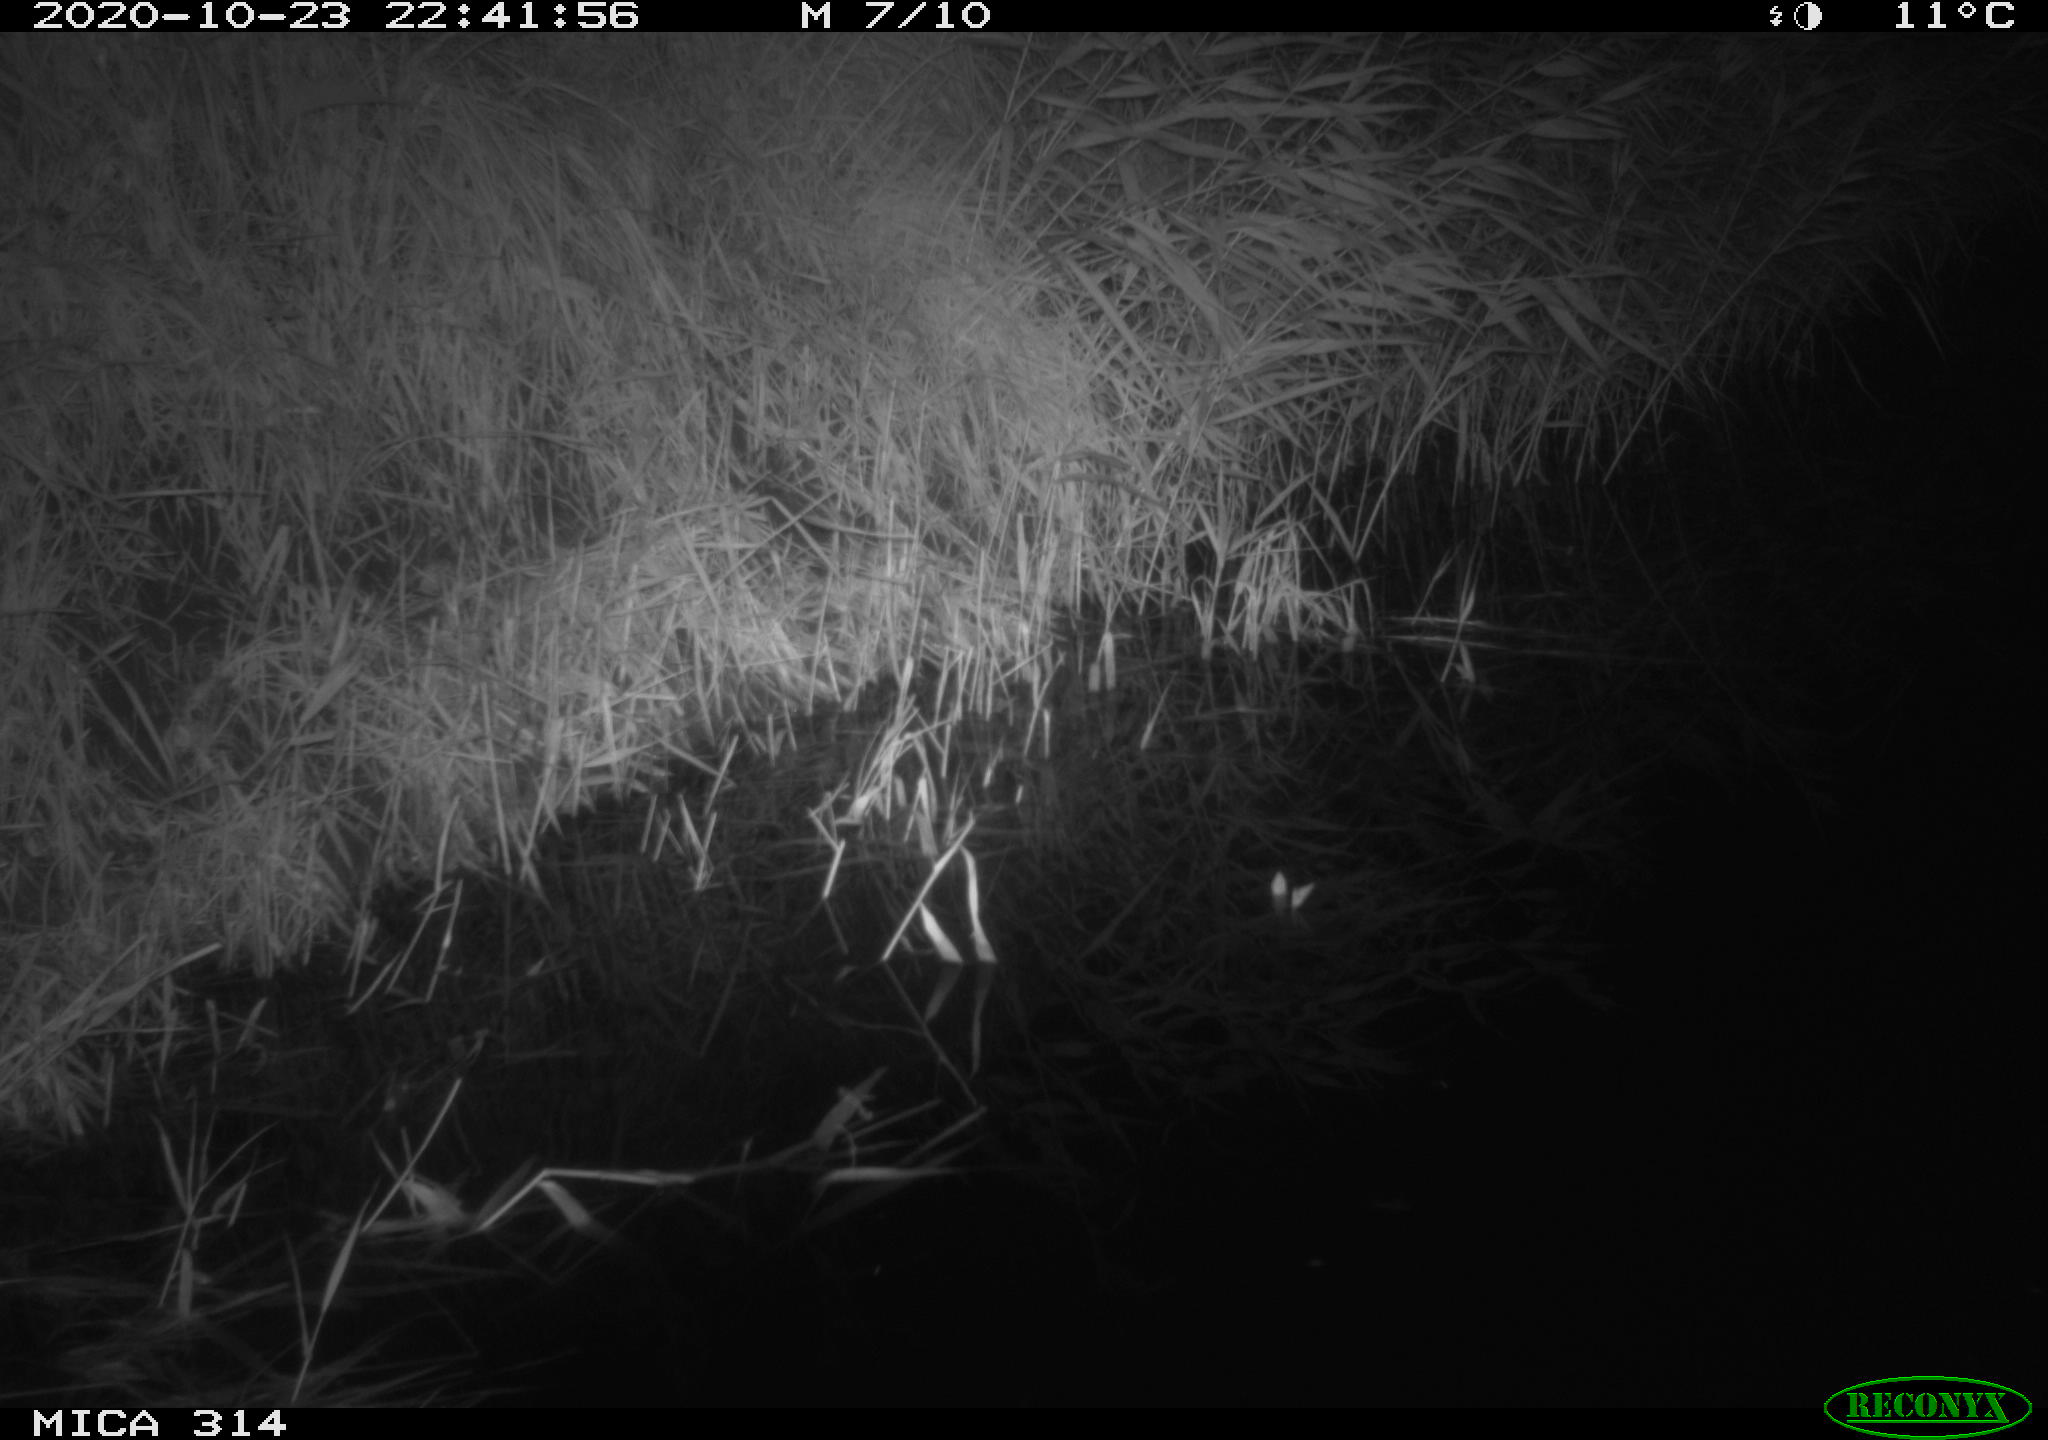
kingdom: Animalia
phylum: Chordata
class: Mammalia
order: Rodentia
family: Muridae
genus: Rattus
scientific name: Rattus norvegicus
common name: Brown rat
